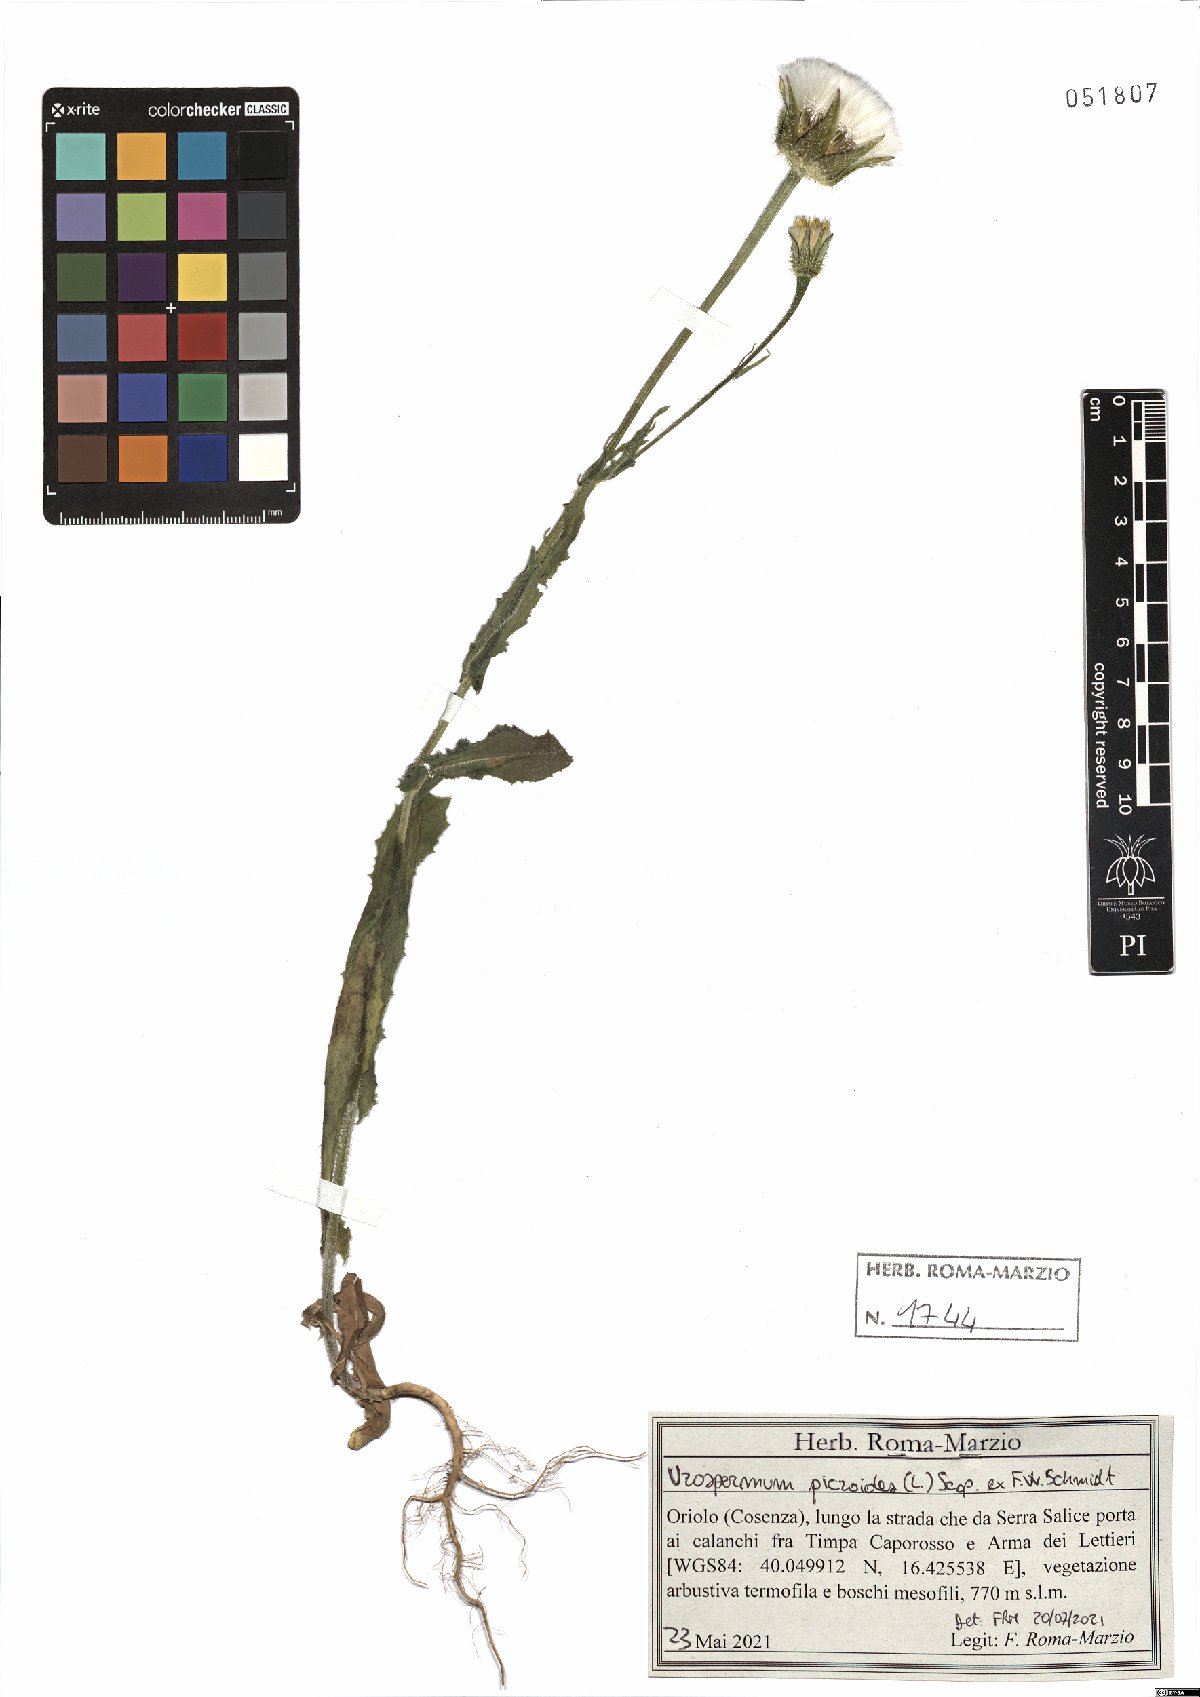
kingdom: Plantae
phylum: Tracheophyta
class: Magnoliopsida
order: Asterales
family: Asteraceae
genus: Urospermum
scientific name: Urospermum picroides
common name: False hawkbit
